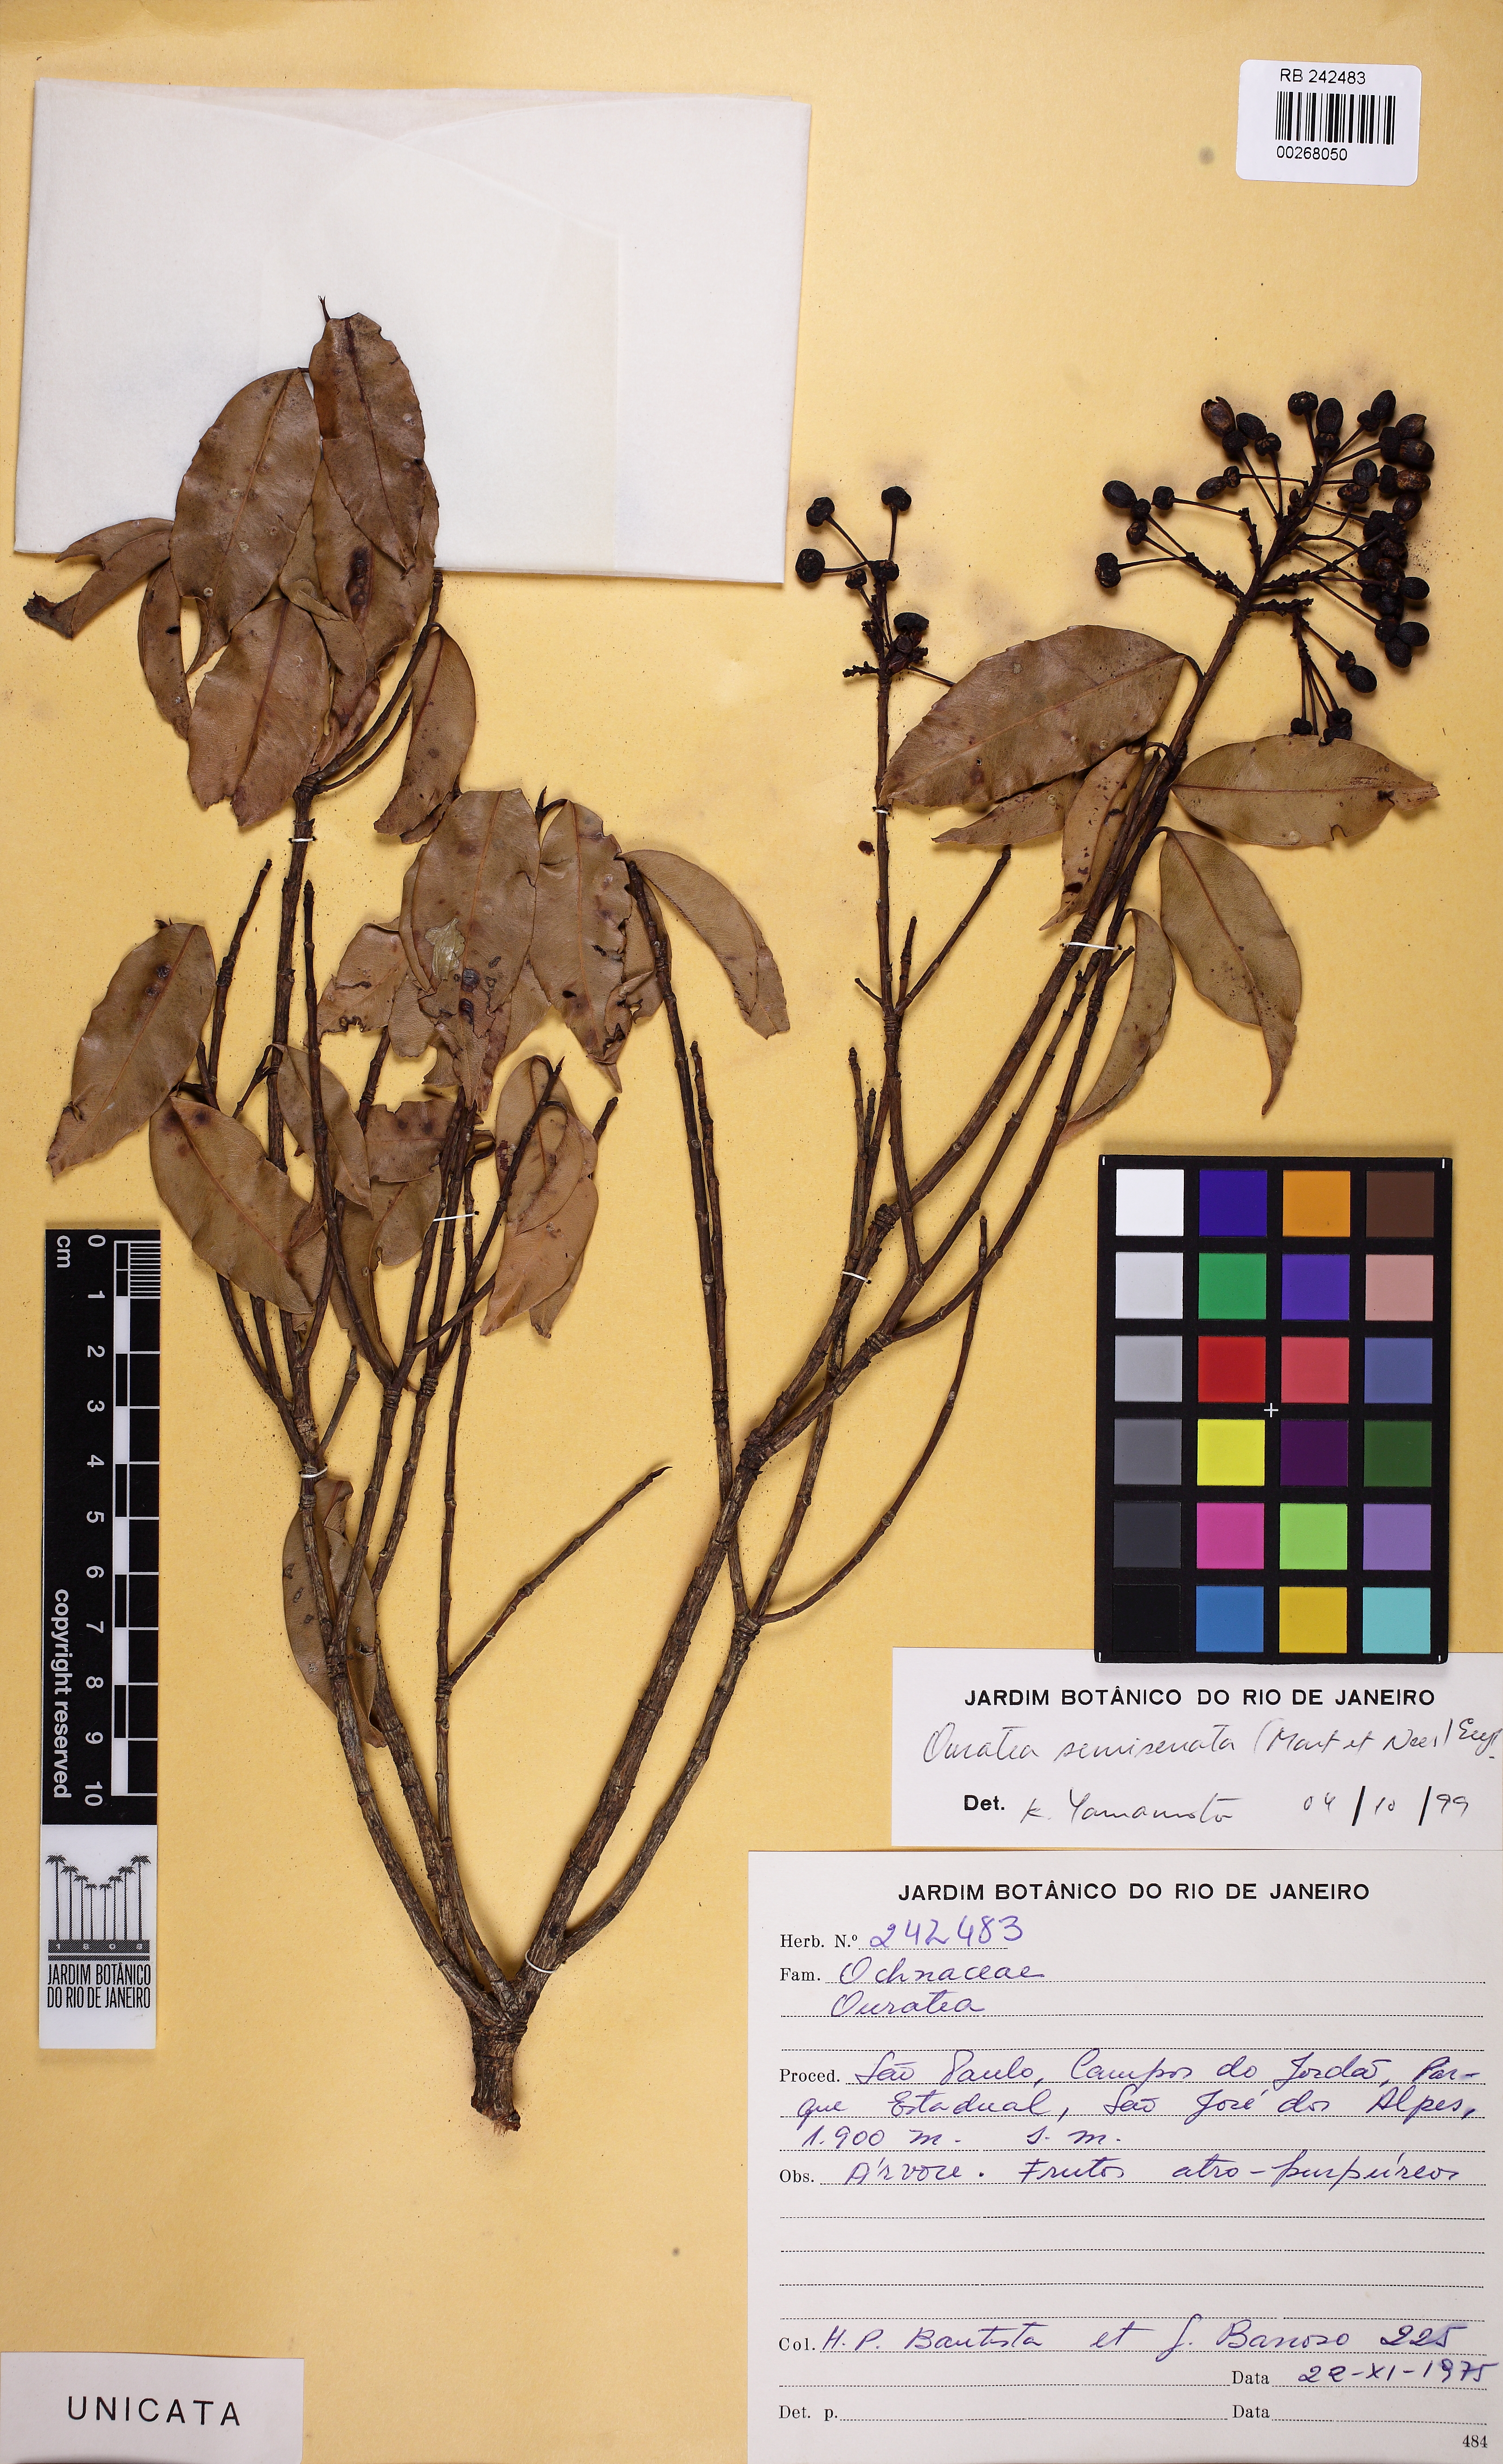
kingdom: Plantae
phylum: Tracheophyta
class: Magnoliopsida
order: Malpighiales
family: Ochnaceae
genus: Ouratea
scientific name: Ouratea semiserrata
